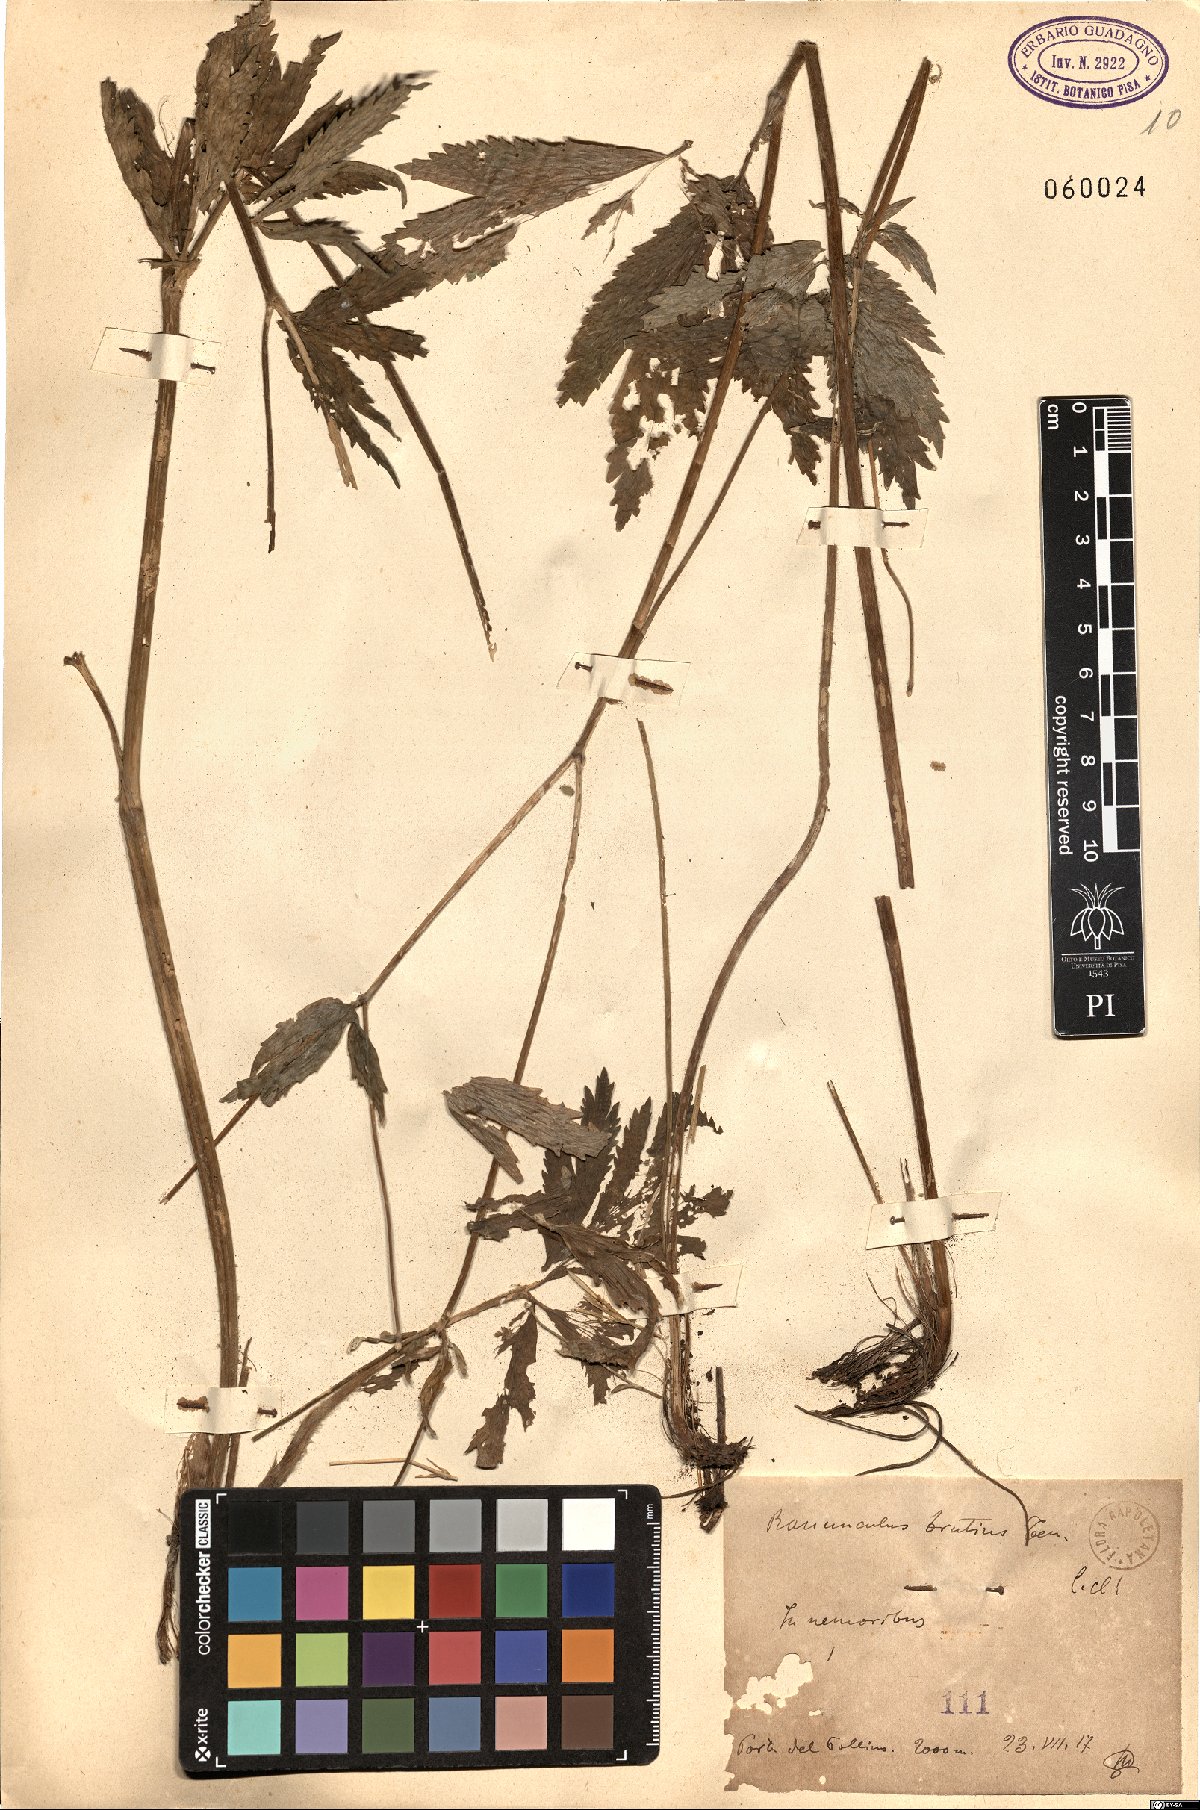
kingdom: Plantae
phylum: Tracheophyta
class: Magnoliopsida
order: Ranunculales
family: Ranunculaceae
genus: Ranunculus
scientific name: Ranunculus brutius
